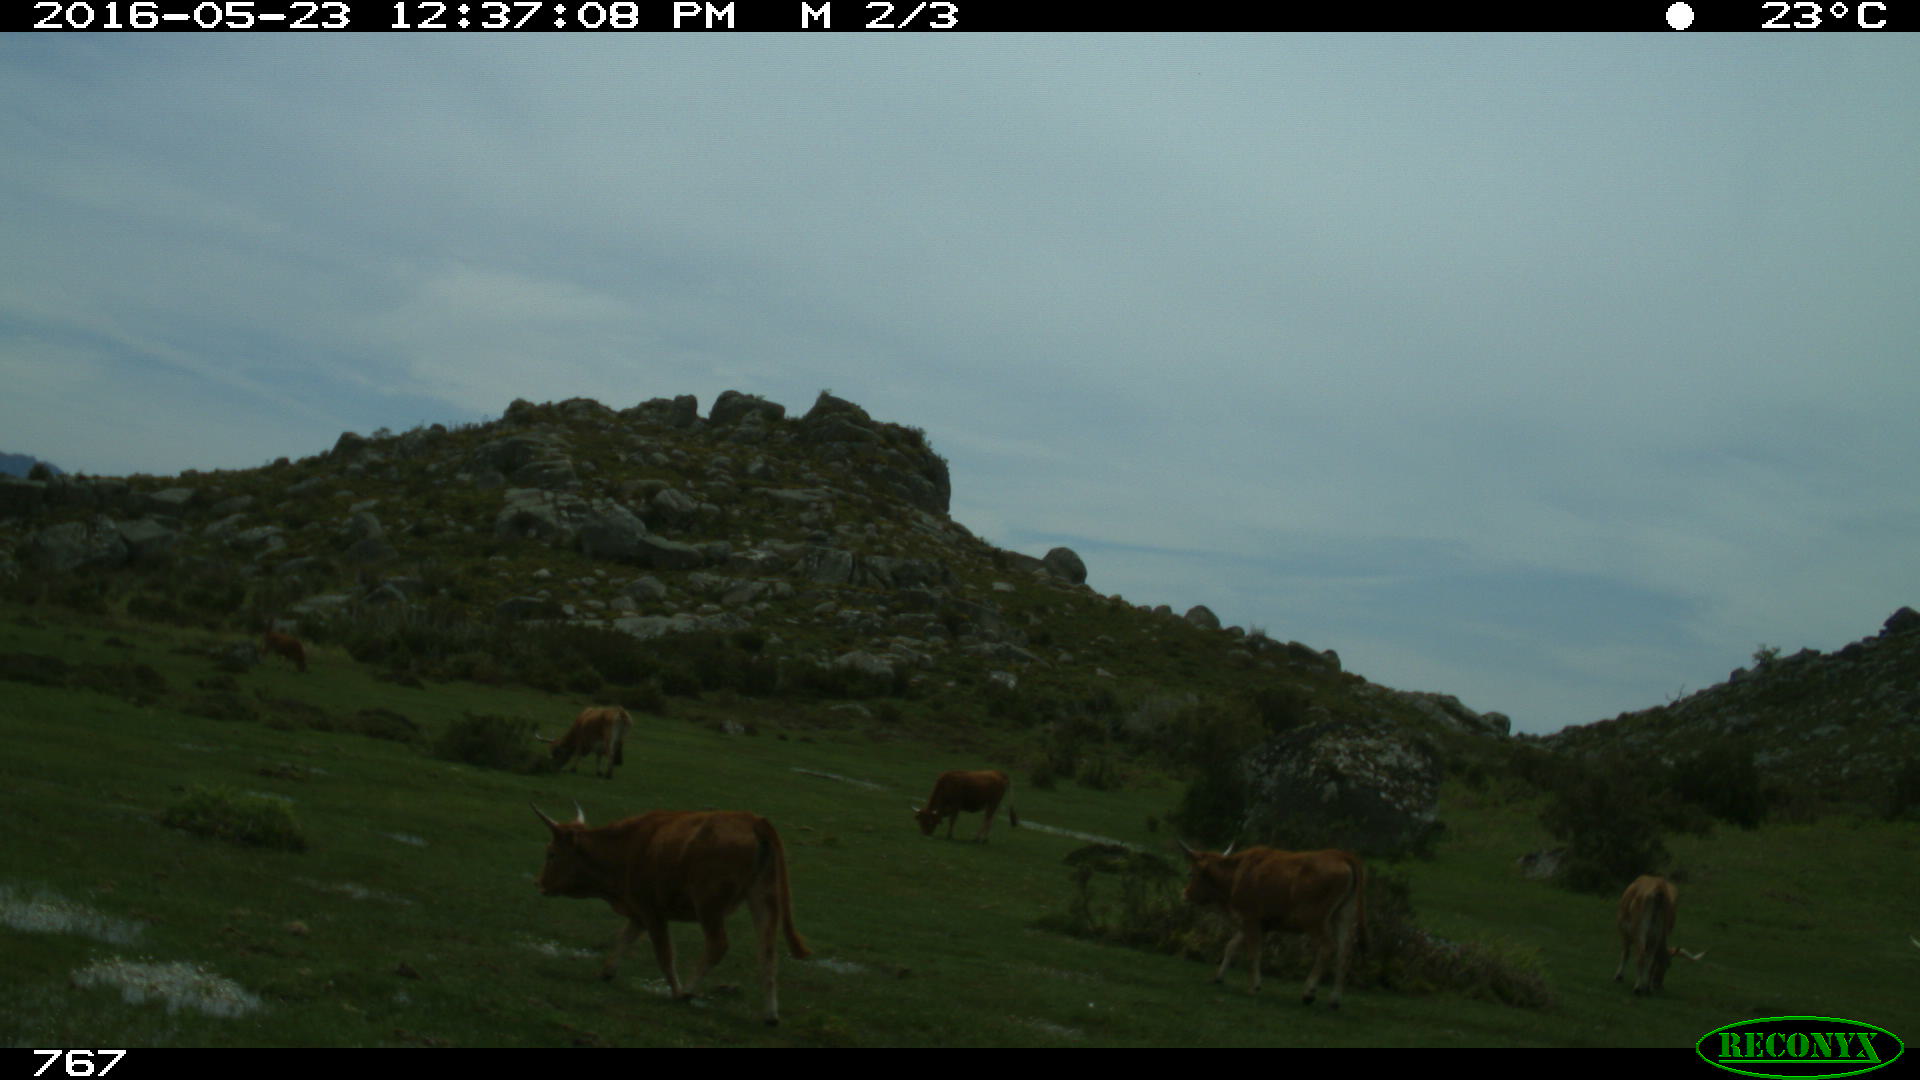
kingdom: Animalia
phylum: Chordata
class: Mammalia
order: Artiodactyla
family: Bovidae
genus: Bos
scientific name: Bos taurus
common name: Domesticated cattle
